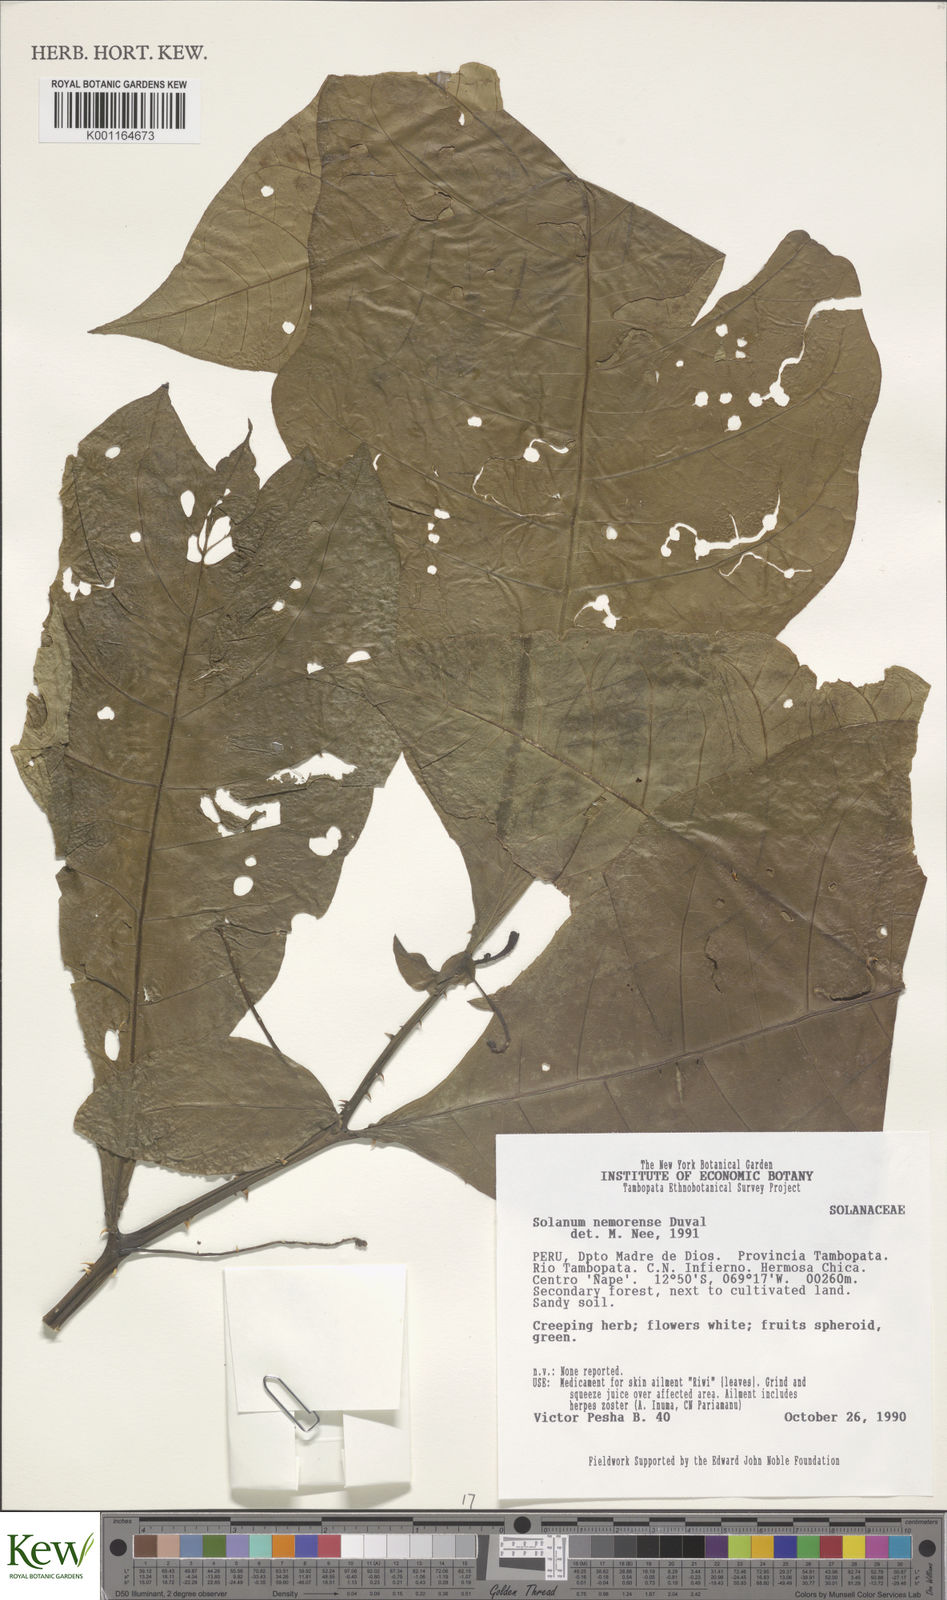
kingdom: Plantae
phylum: Tracheophyta
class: Magnoliopsida
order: Solanales
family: Solanaceae
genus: Solanum
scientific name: Solanum nemorense
